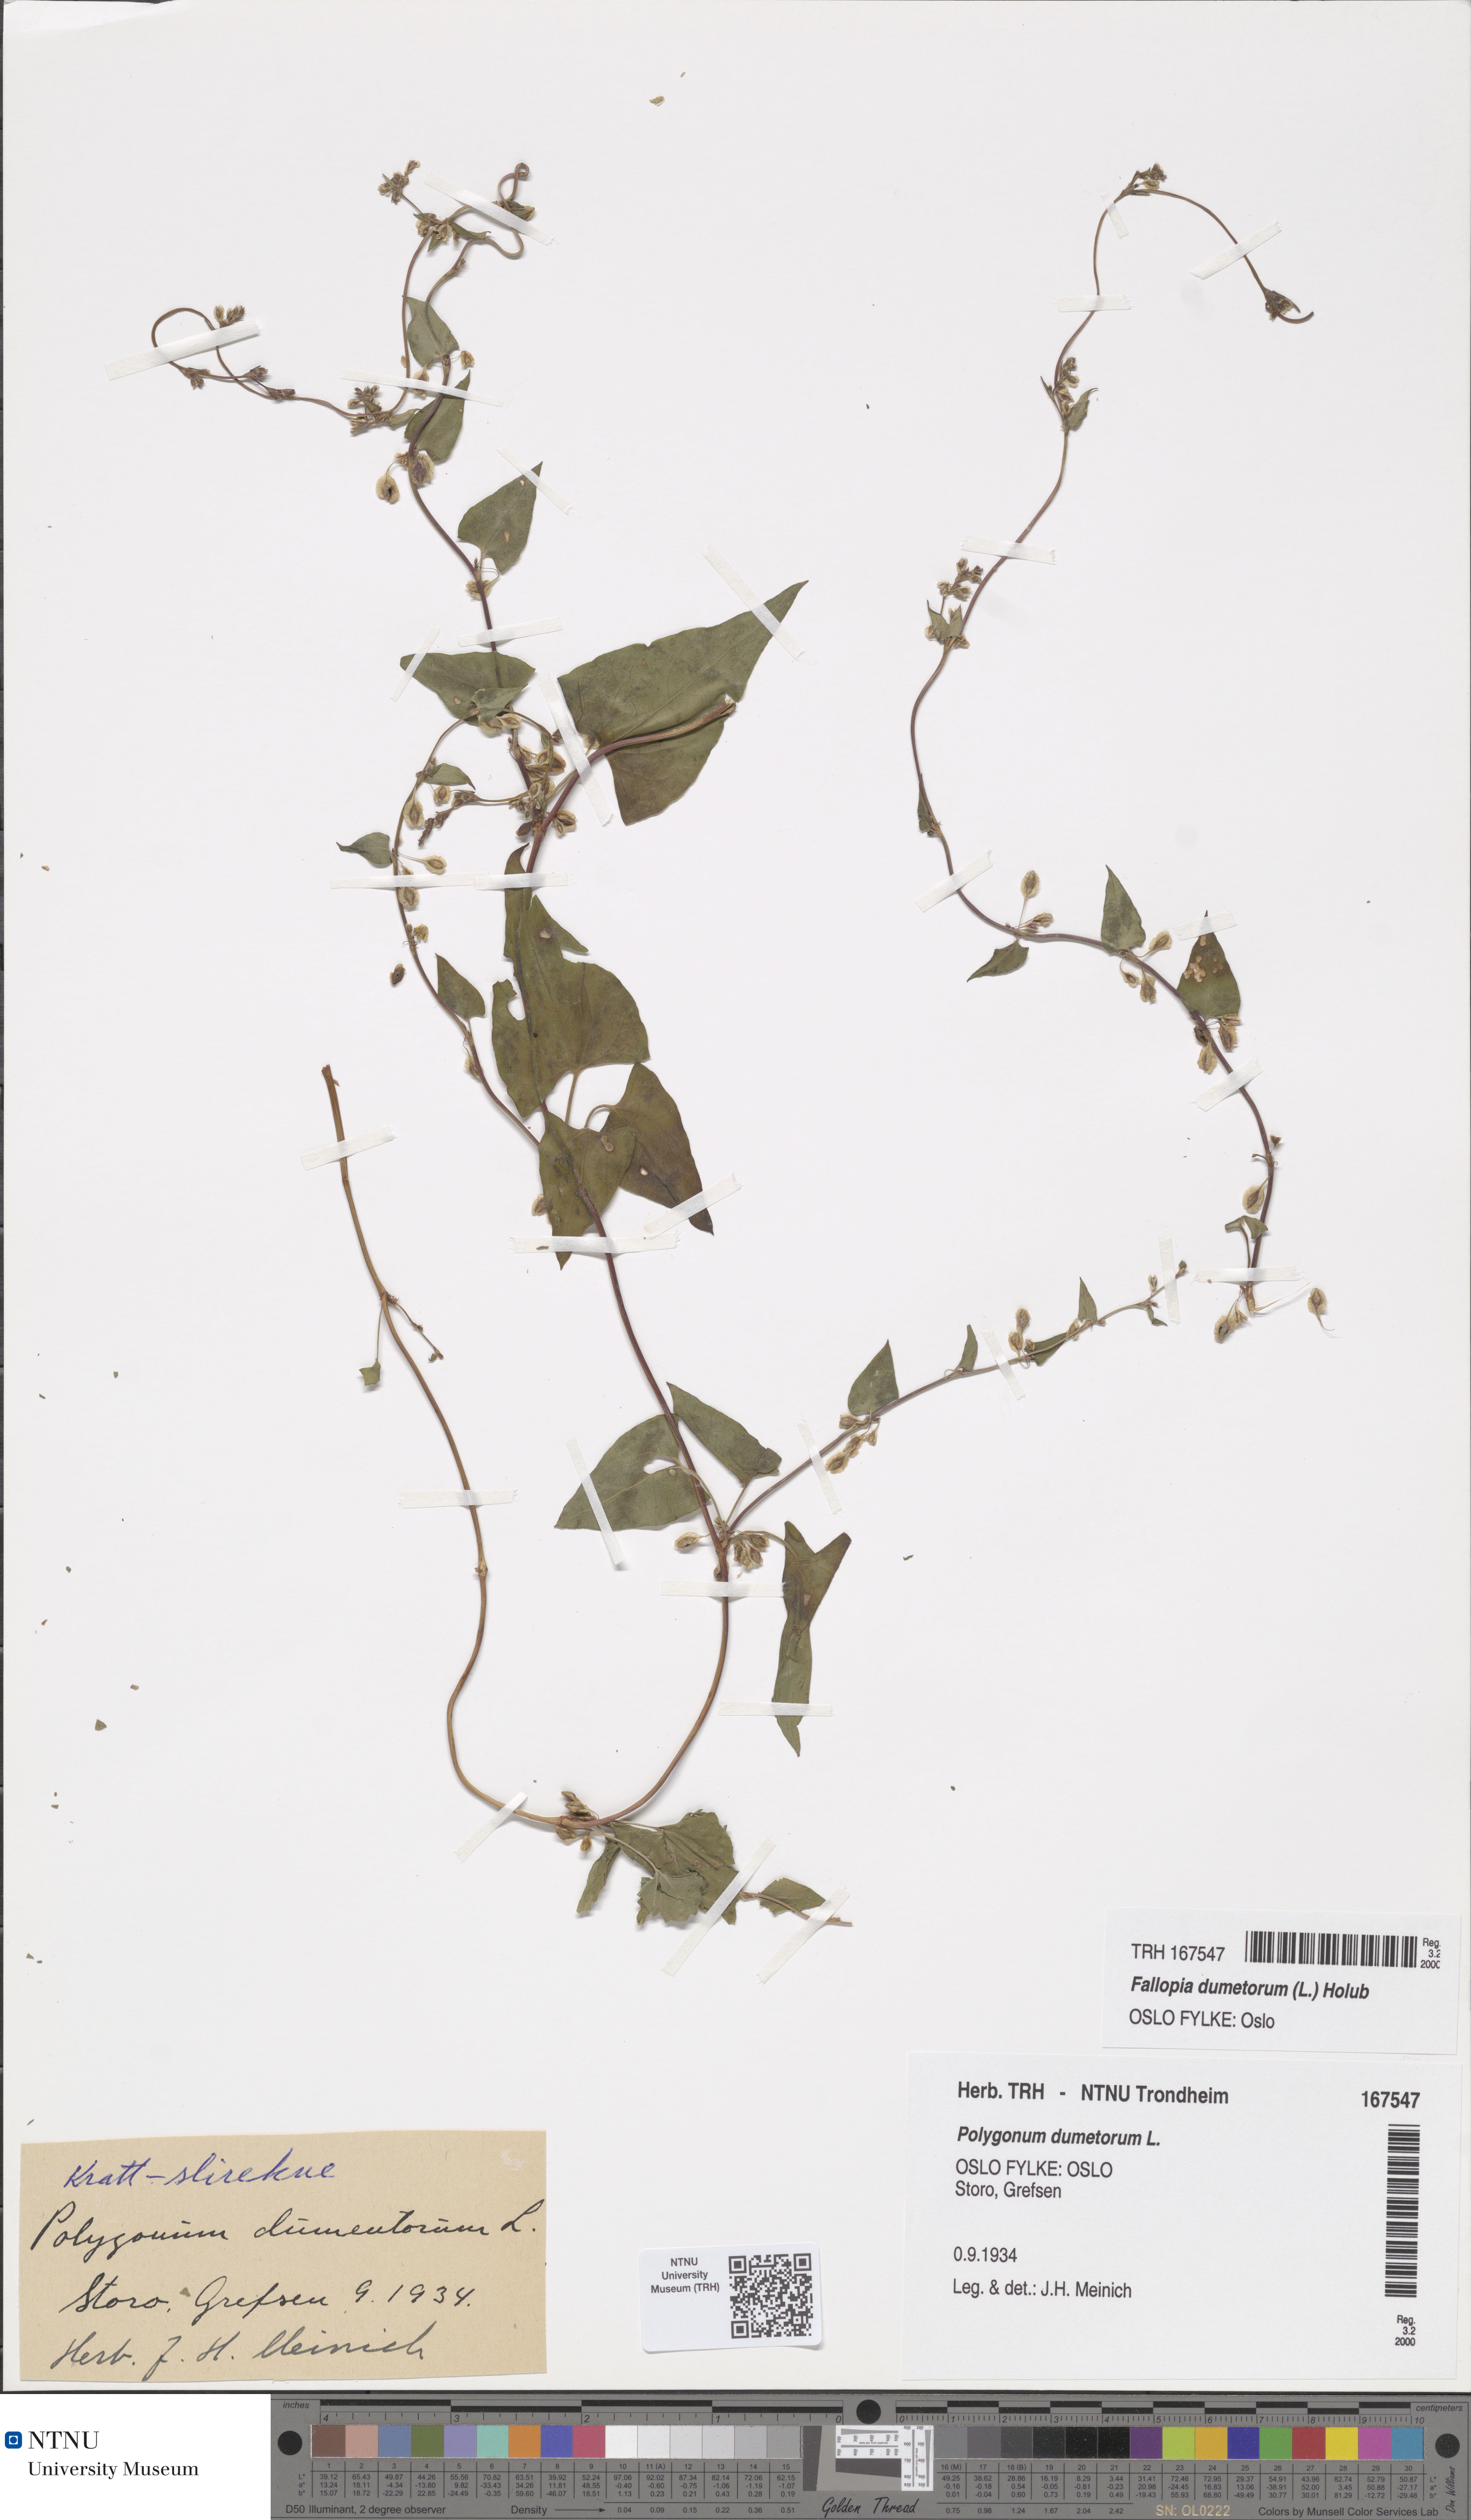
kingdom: Plantae
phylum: Tracheophyta
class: Magnoliopsida
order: Caryophyllales
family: Polygonaceae
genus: Fallopia
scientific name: Fallopia dumetorum
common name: Copse-bindweed
